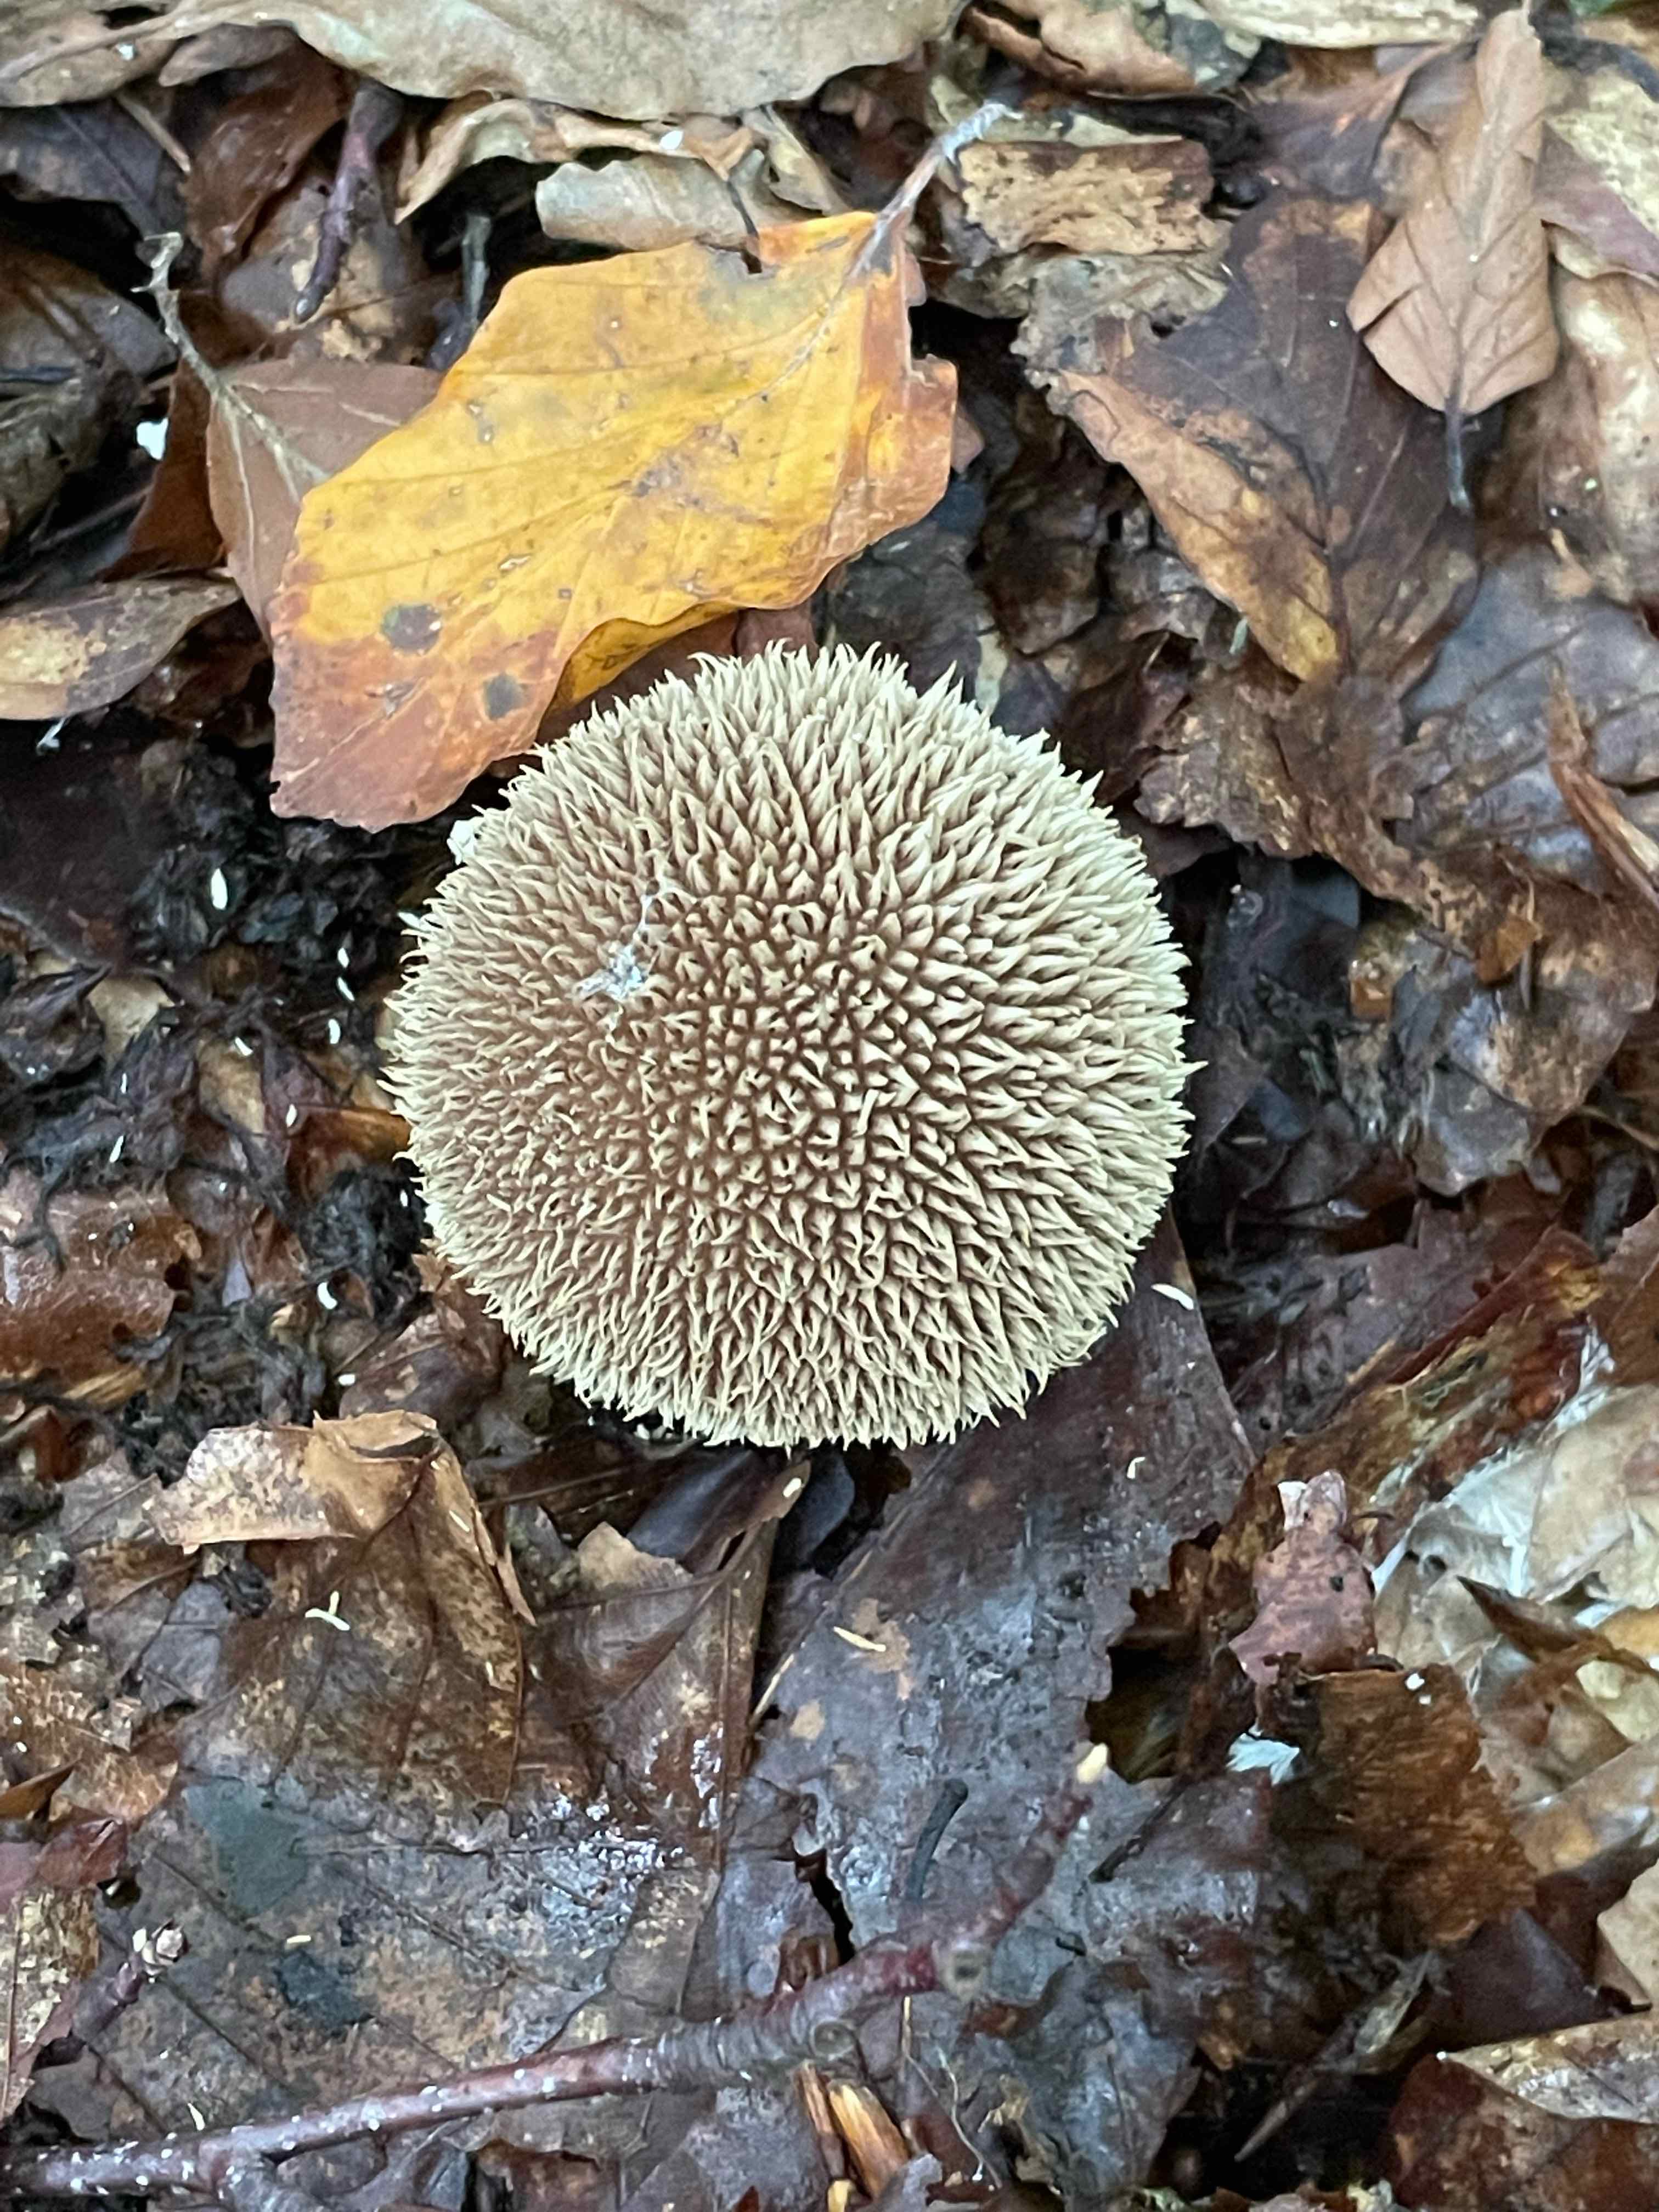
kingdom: Fungi
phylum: Basidiomycota
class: Agaricomycetes
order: Agaricales
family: Lycoperdaceae
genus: Lycoperdon
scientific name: Lycoperdon echinatum
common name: pindsvine-støvbold
